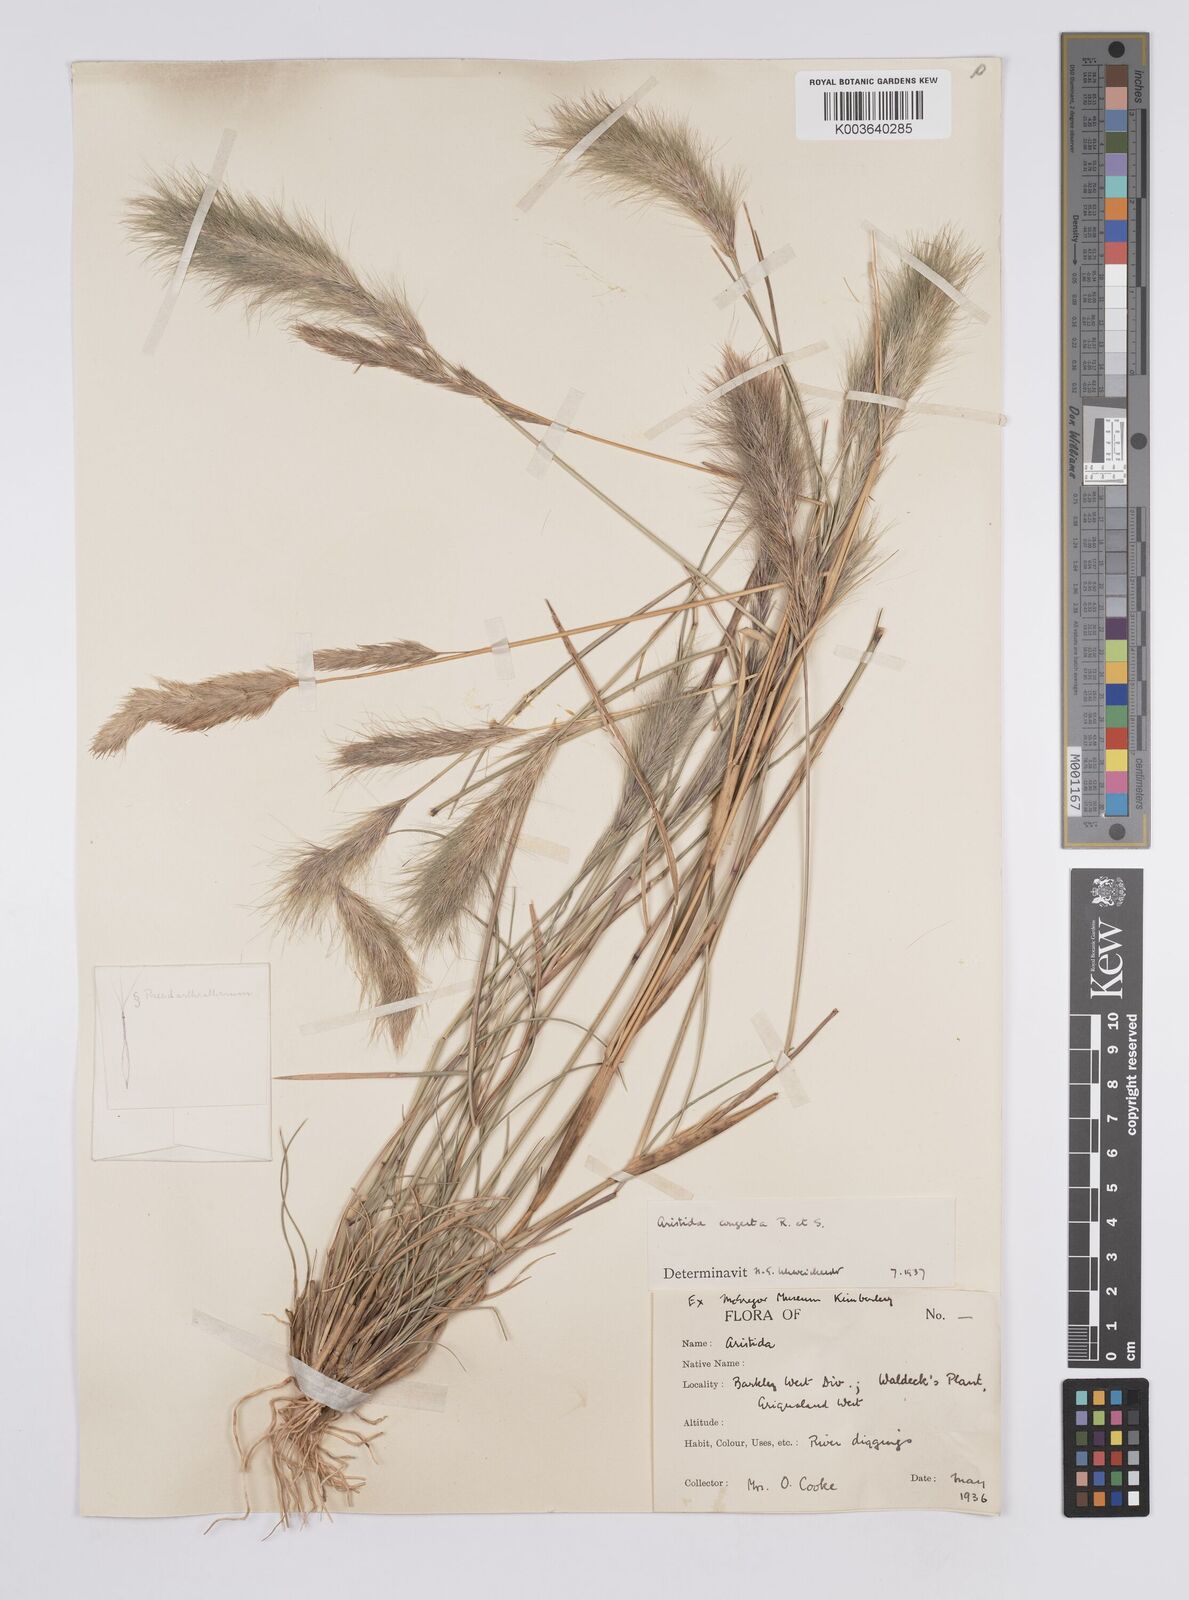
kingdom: Plantae
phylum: Tracheophyta
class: Liliopsida
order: Poales
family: Poaceae
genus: Aristida
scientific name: Aristida congesta
